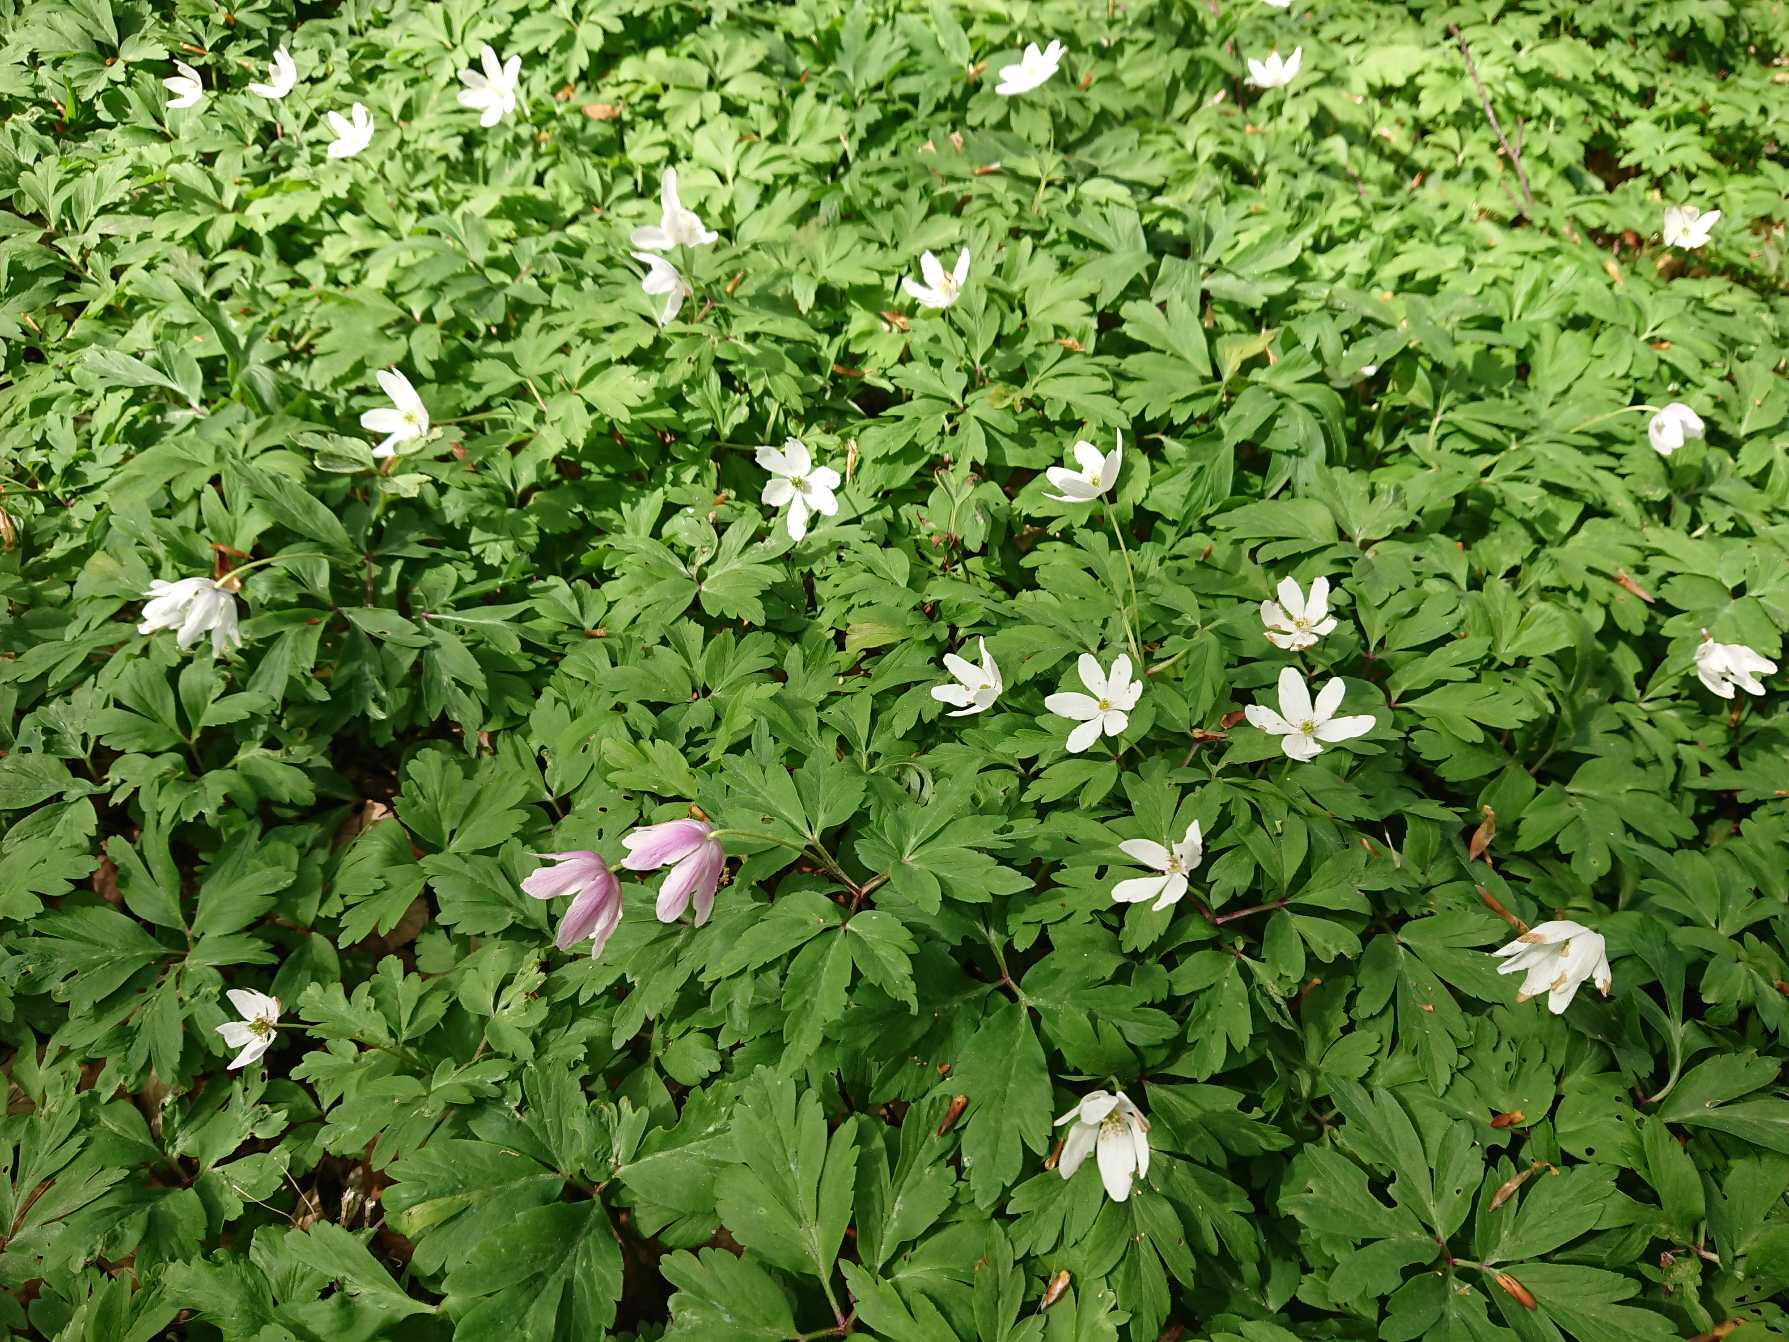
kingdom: Plantae
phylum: Tracheophyta
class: Magnoliopsida
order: Ranunculales
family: Ranunculaceae
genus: Anemone
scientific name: Anemone nemorosa
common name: Hvid anemone
